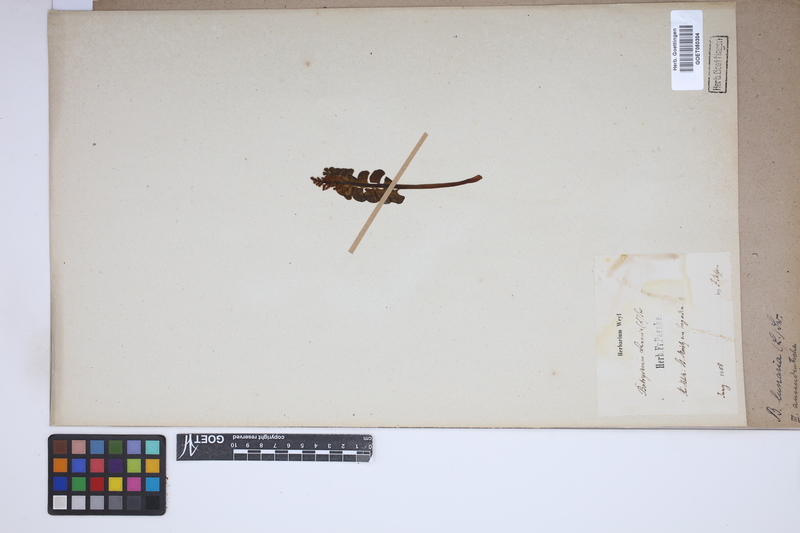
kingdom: Plantae
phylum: Tracheophyta
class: Polypodiopsida
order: Ophioglossales
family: Ophioglossaceae
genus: Botrychium
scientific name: Botrychium lunaria
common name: Moonwort
